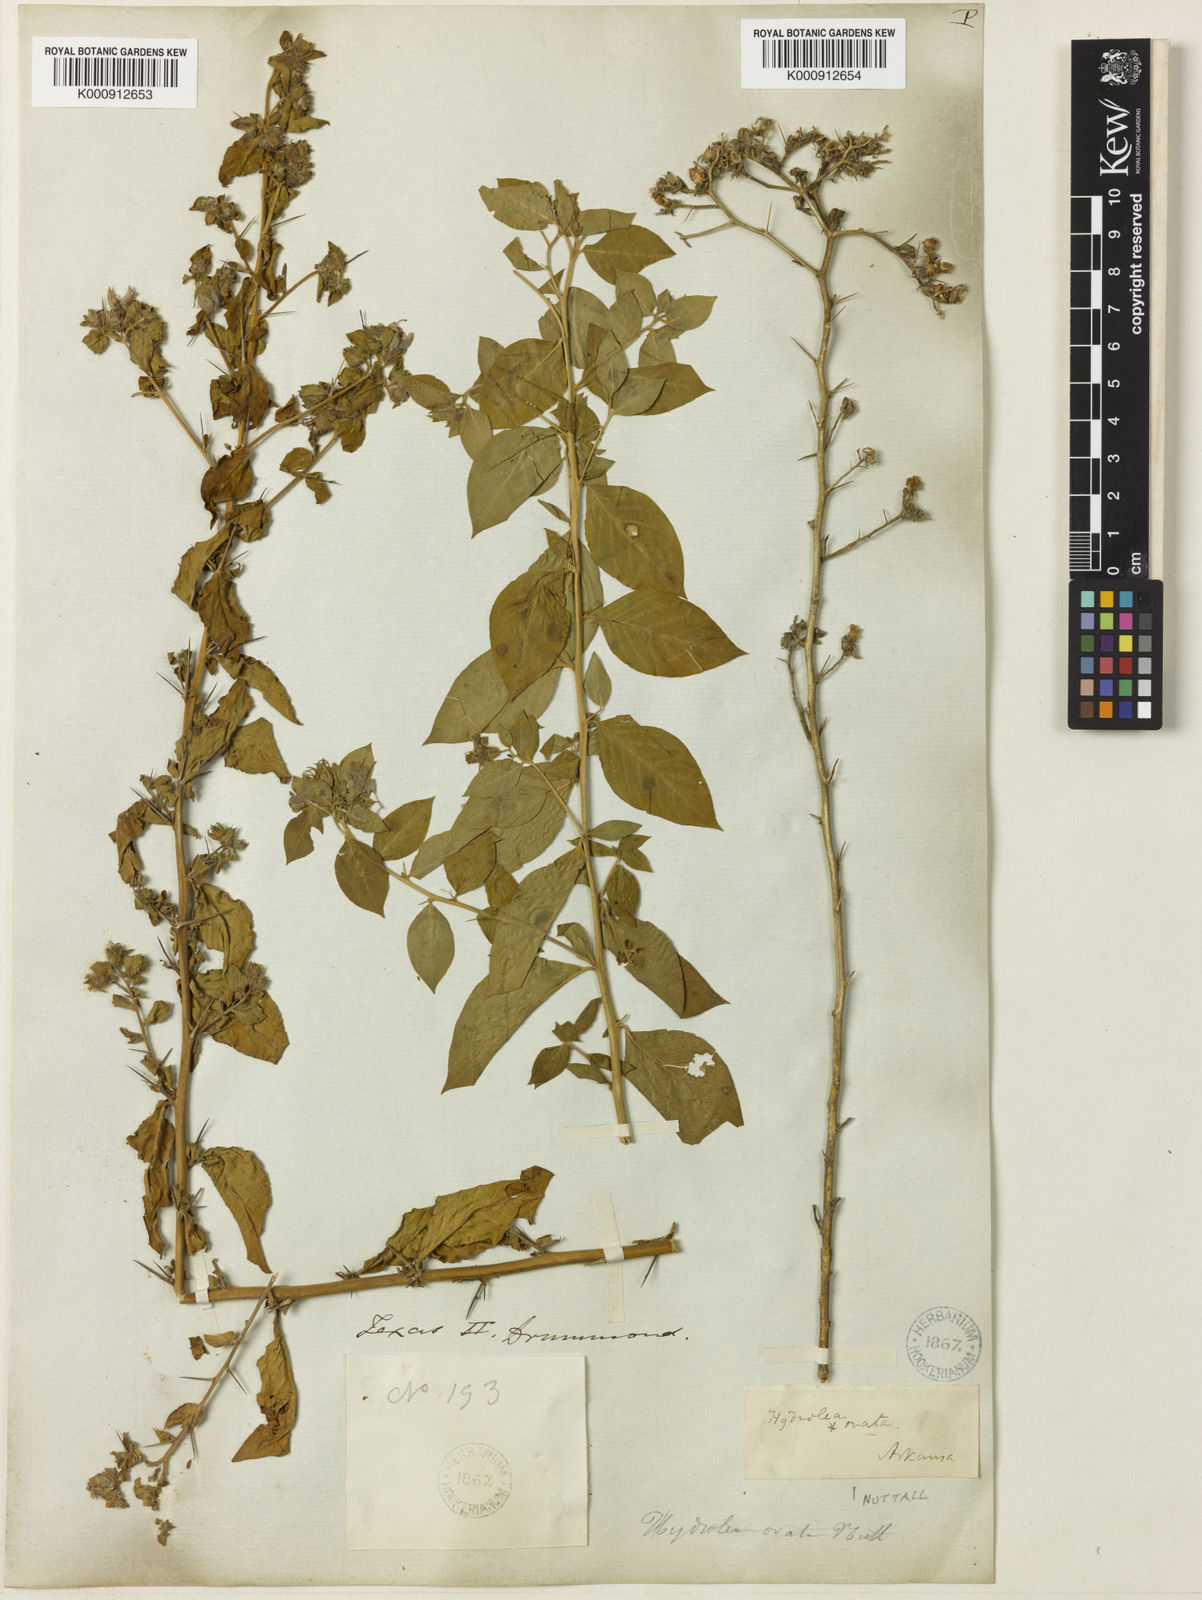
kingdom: Plantae
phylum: Tracheophyta
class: Magnoliopsida
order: Solanales
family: Hydroleaceae
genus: Hydrolea
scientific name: Hydrolea ovata
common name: Ovate false fiddleleaf
